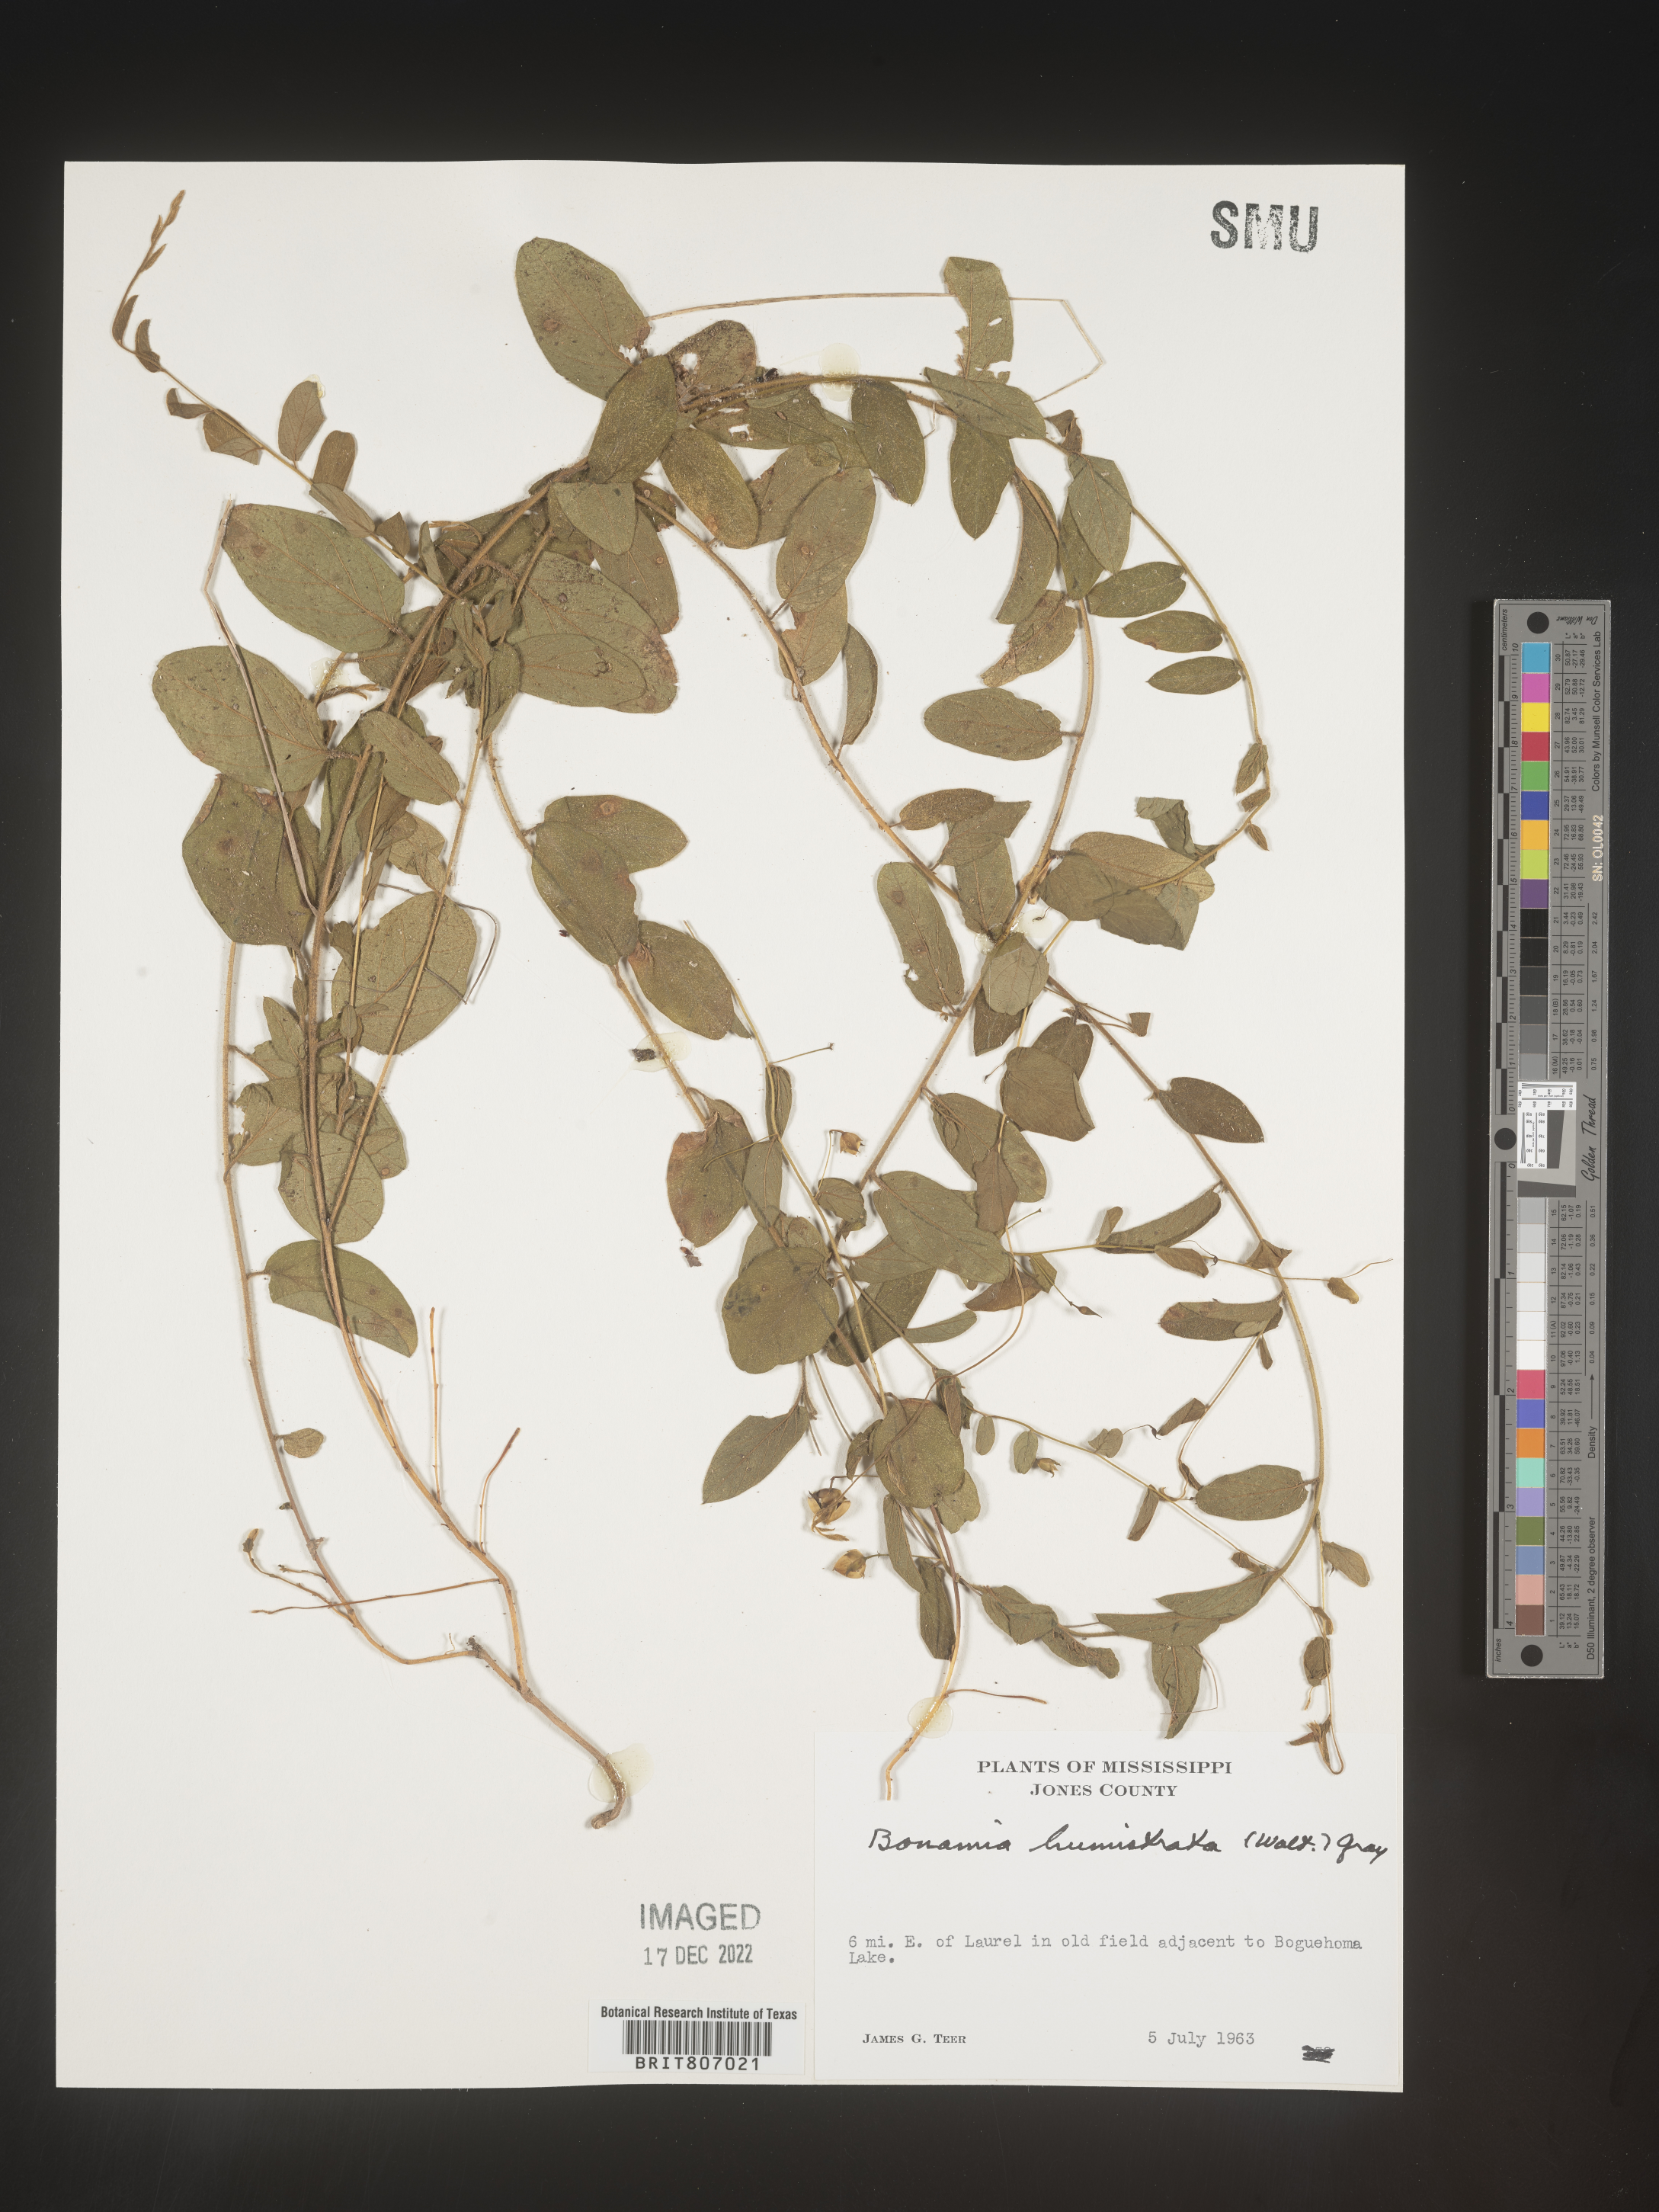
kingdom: Plantae
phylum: Tracheophyta
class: Magnoliopsida
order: Solanales
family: Convolvulaceae
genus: Stylisma
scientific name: Stylisma humistrata
